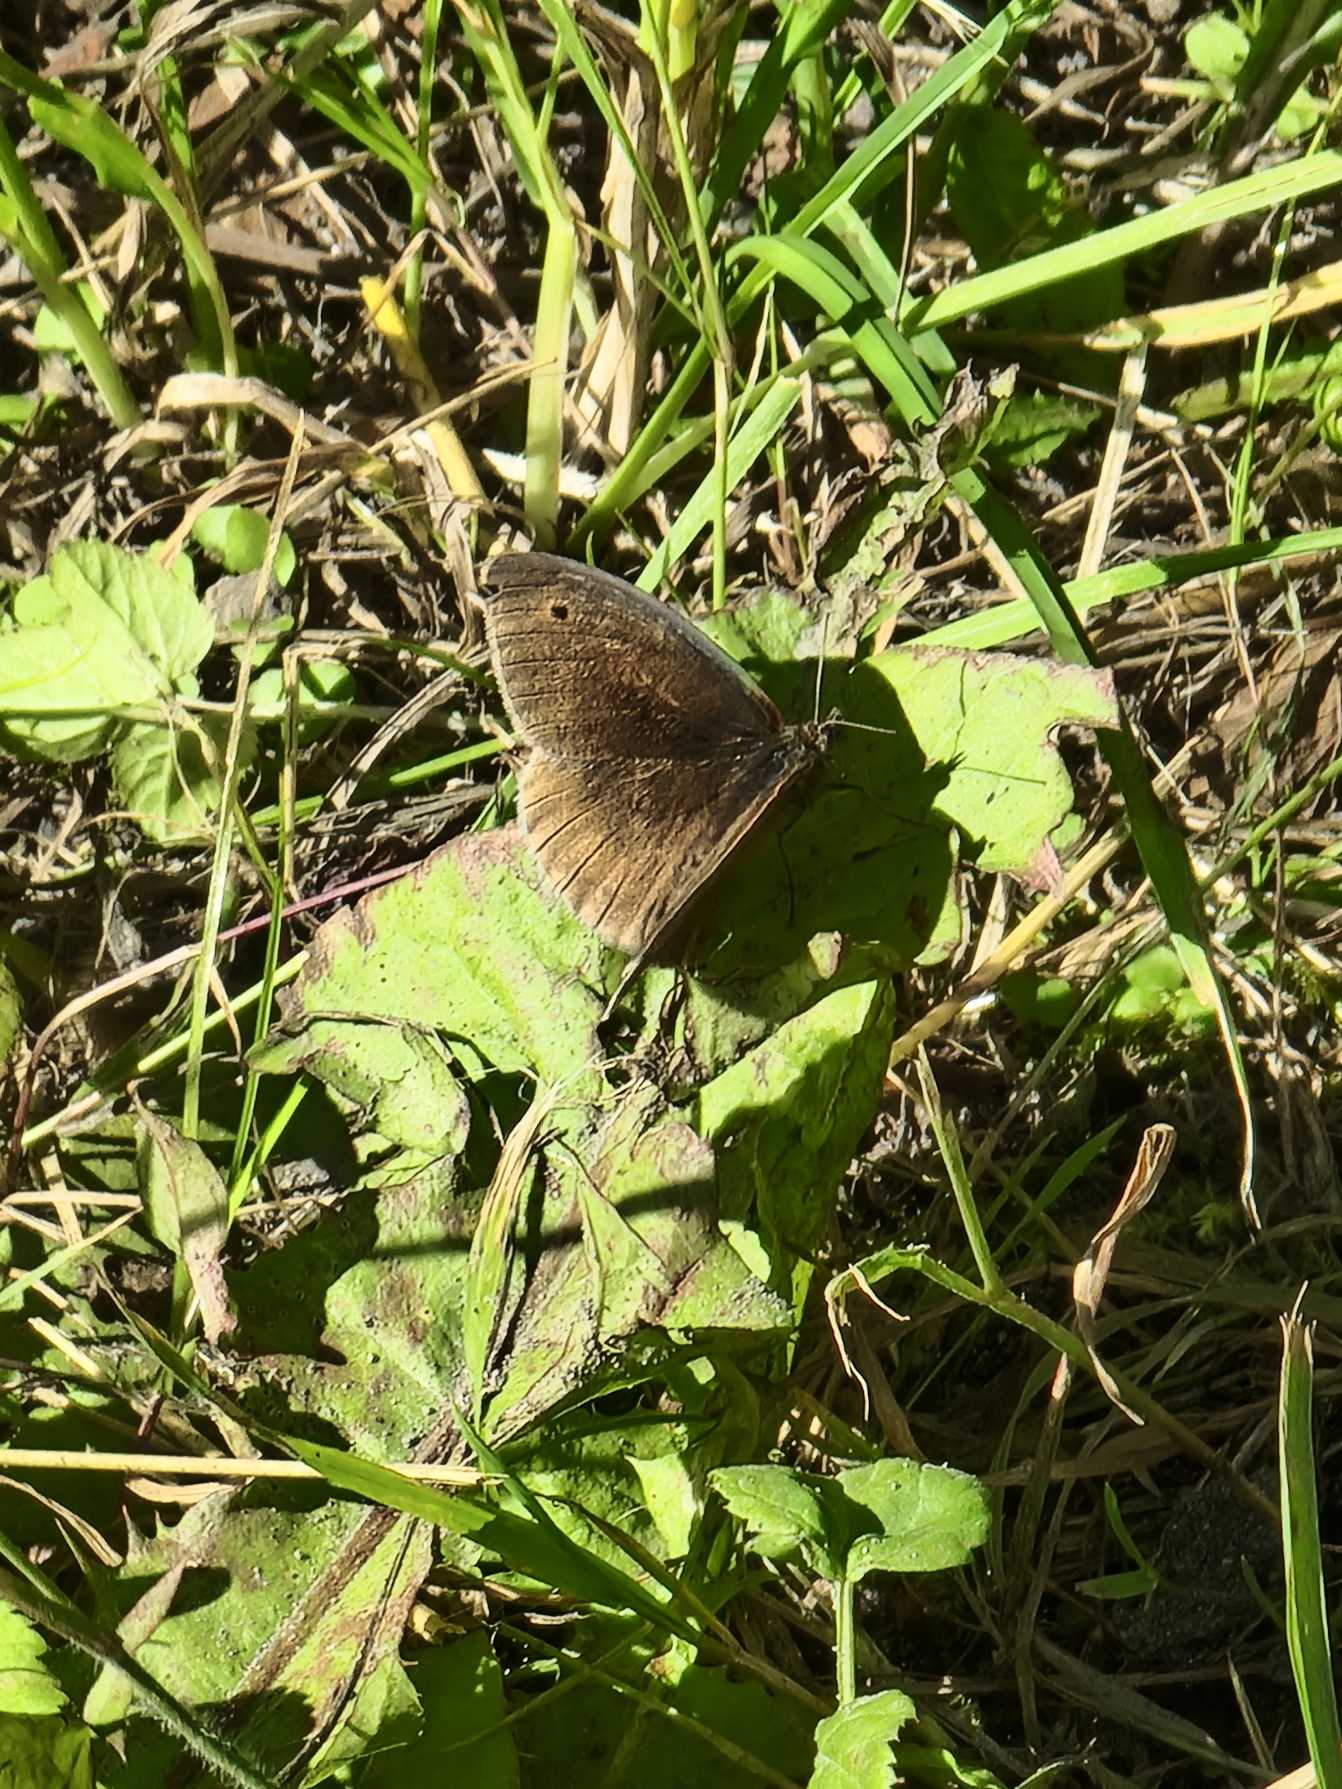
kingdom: Animalia
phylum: Arthropoda
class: Insecta
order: Lepidoptera
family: Nymphalidae
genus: Maniola
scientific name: Maniola jurtina
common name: Græsrandøje
